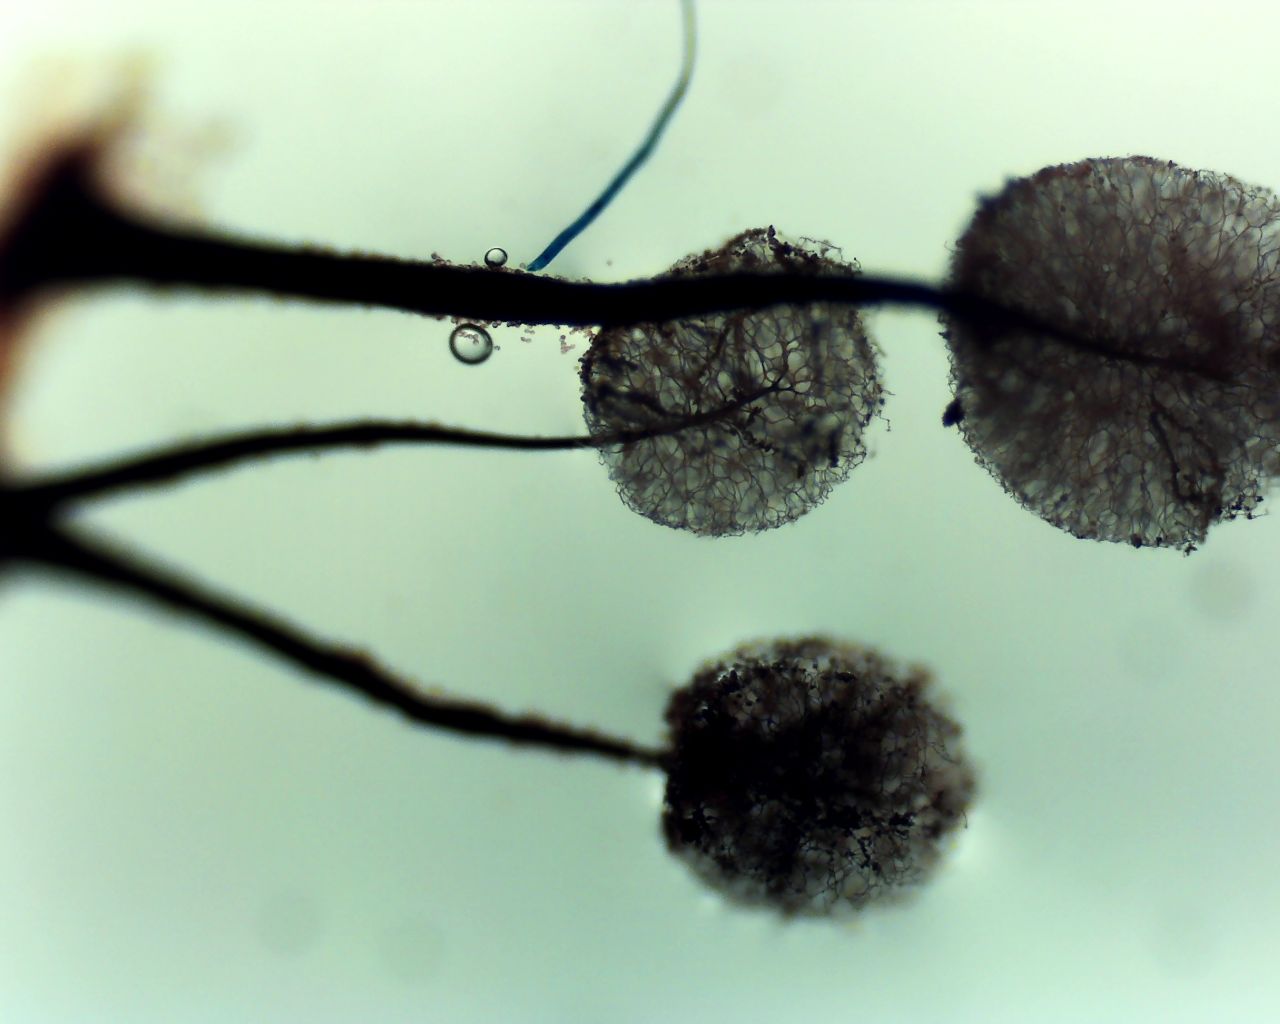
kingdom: Protozoa
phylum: Mycetozoa
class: Myxomycetes
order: Stemonitidales
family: Stemonitidaceae
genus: Comatricha
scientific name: Comatricha nigra
